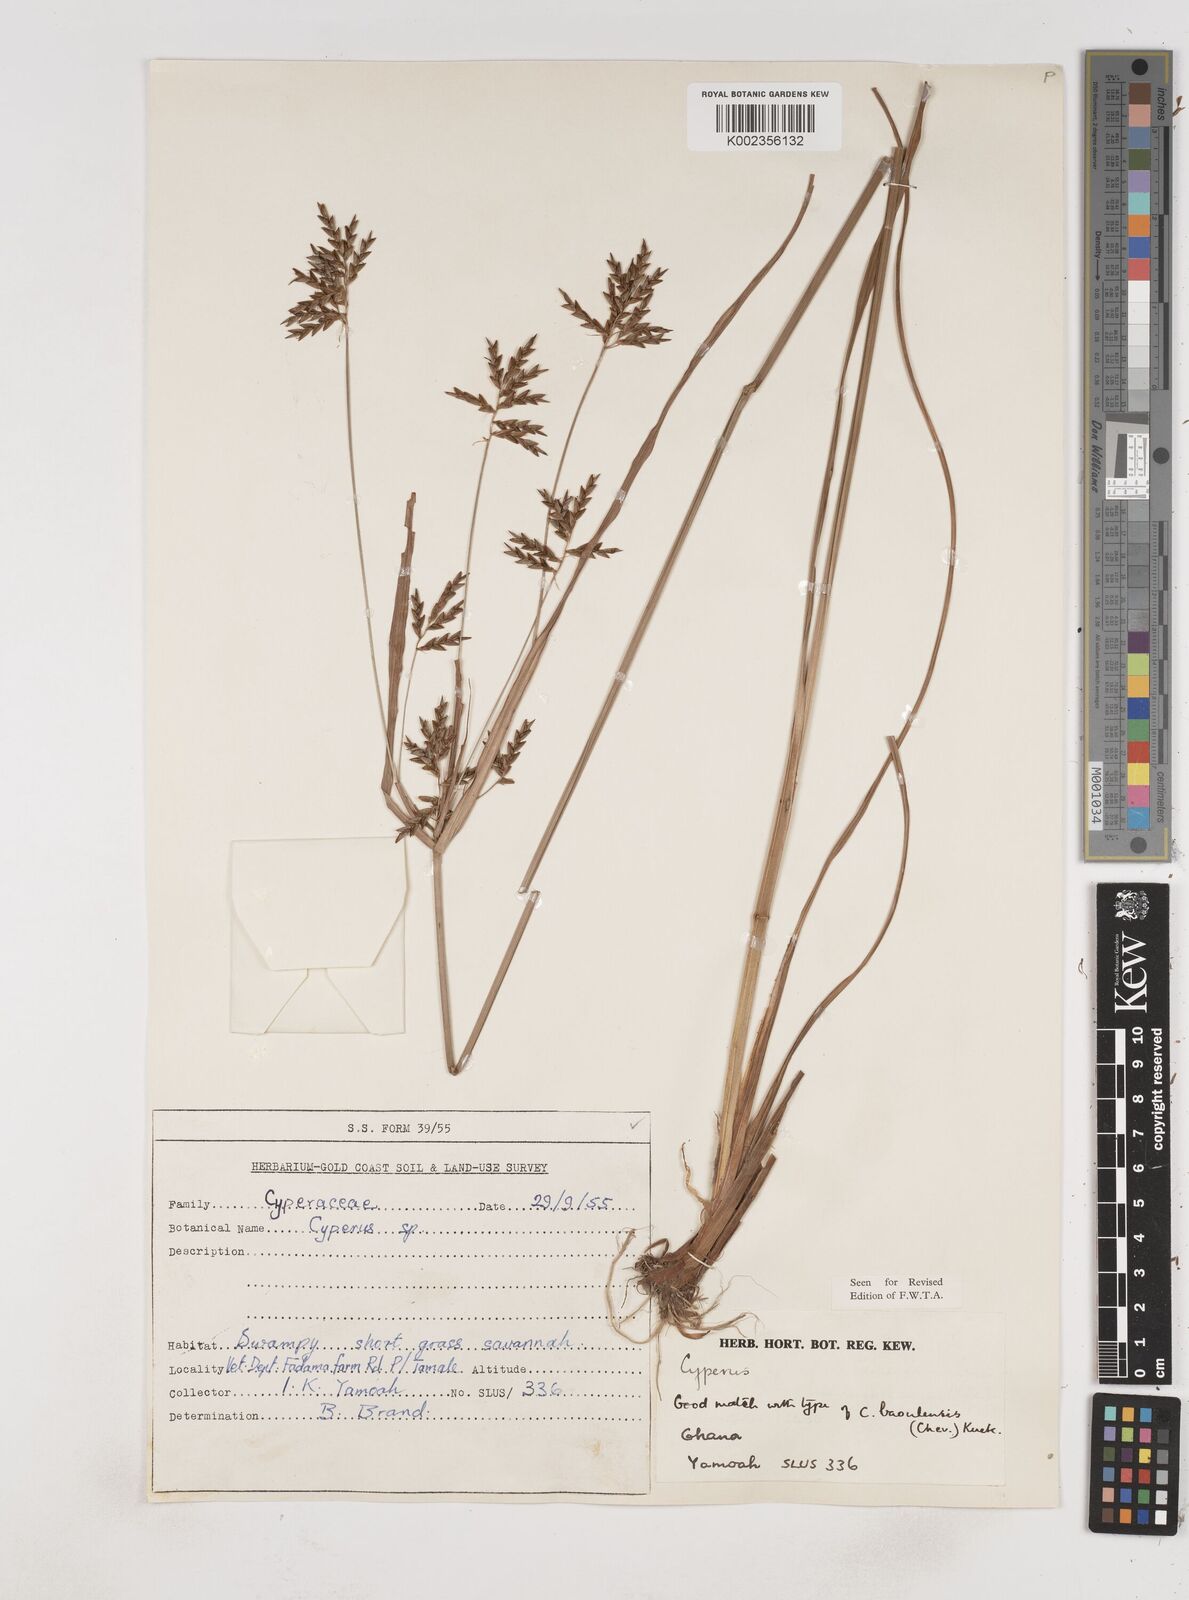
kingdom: Plantae
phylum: Tracheophyta
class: Liliopsida
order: Poales
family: Cyperaceae
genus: Cyperus
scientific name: Cyperus baoulensis
